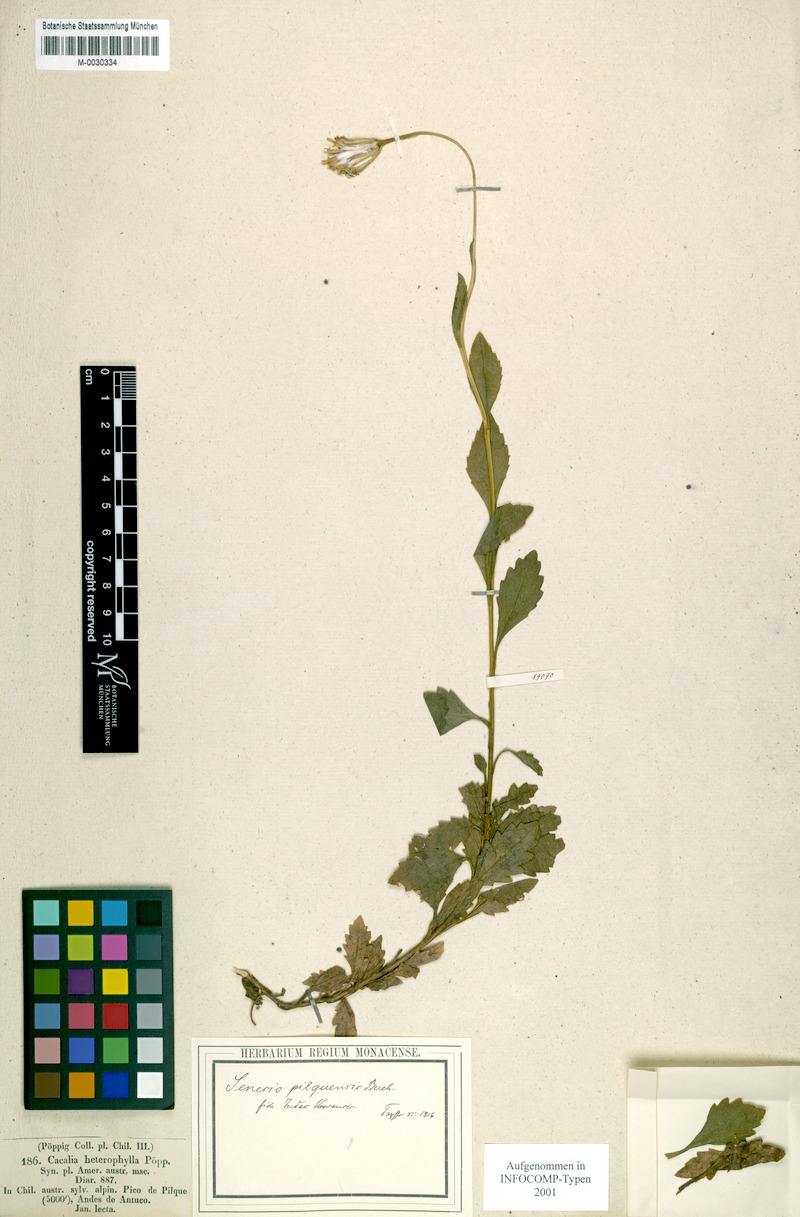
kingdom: Plantae
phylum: Tracheophyta
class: Magnoliopsida
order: Asterales
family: Asteraceae
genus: Senecio
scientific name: Senecio pilquensis
